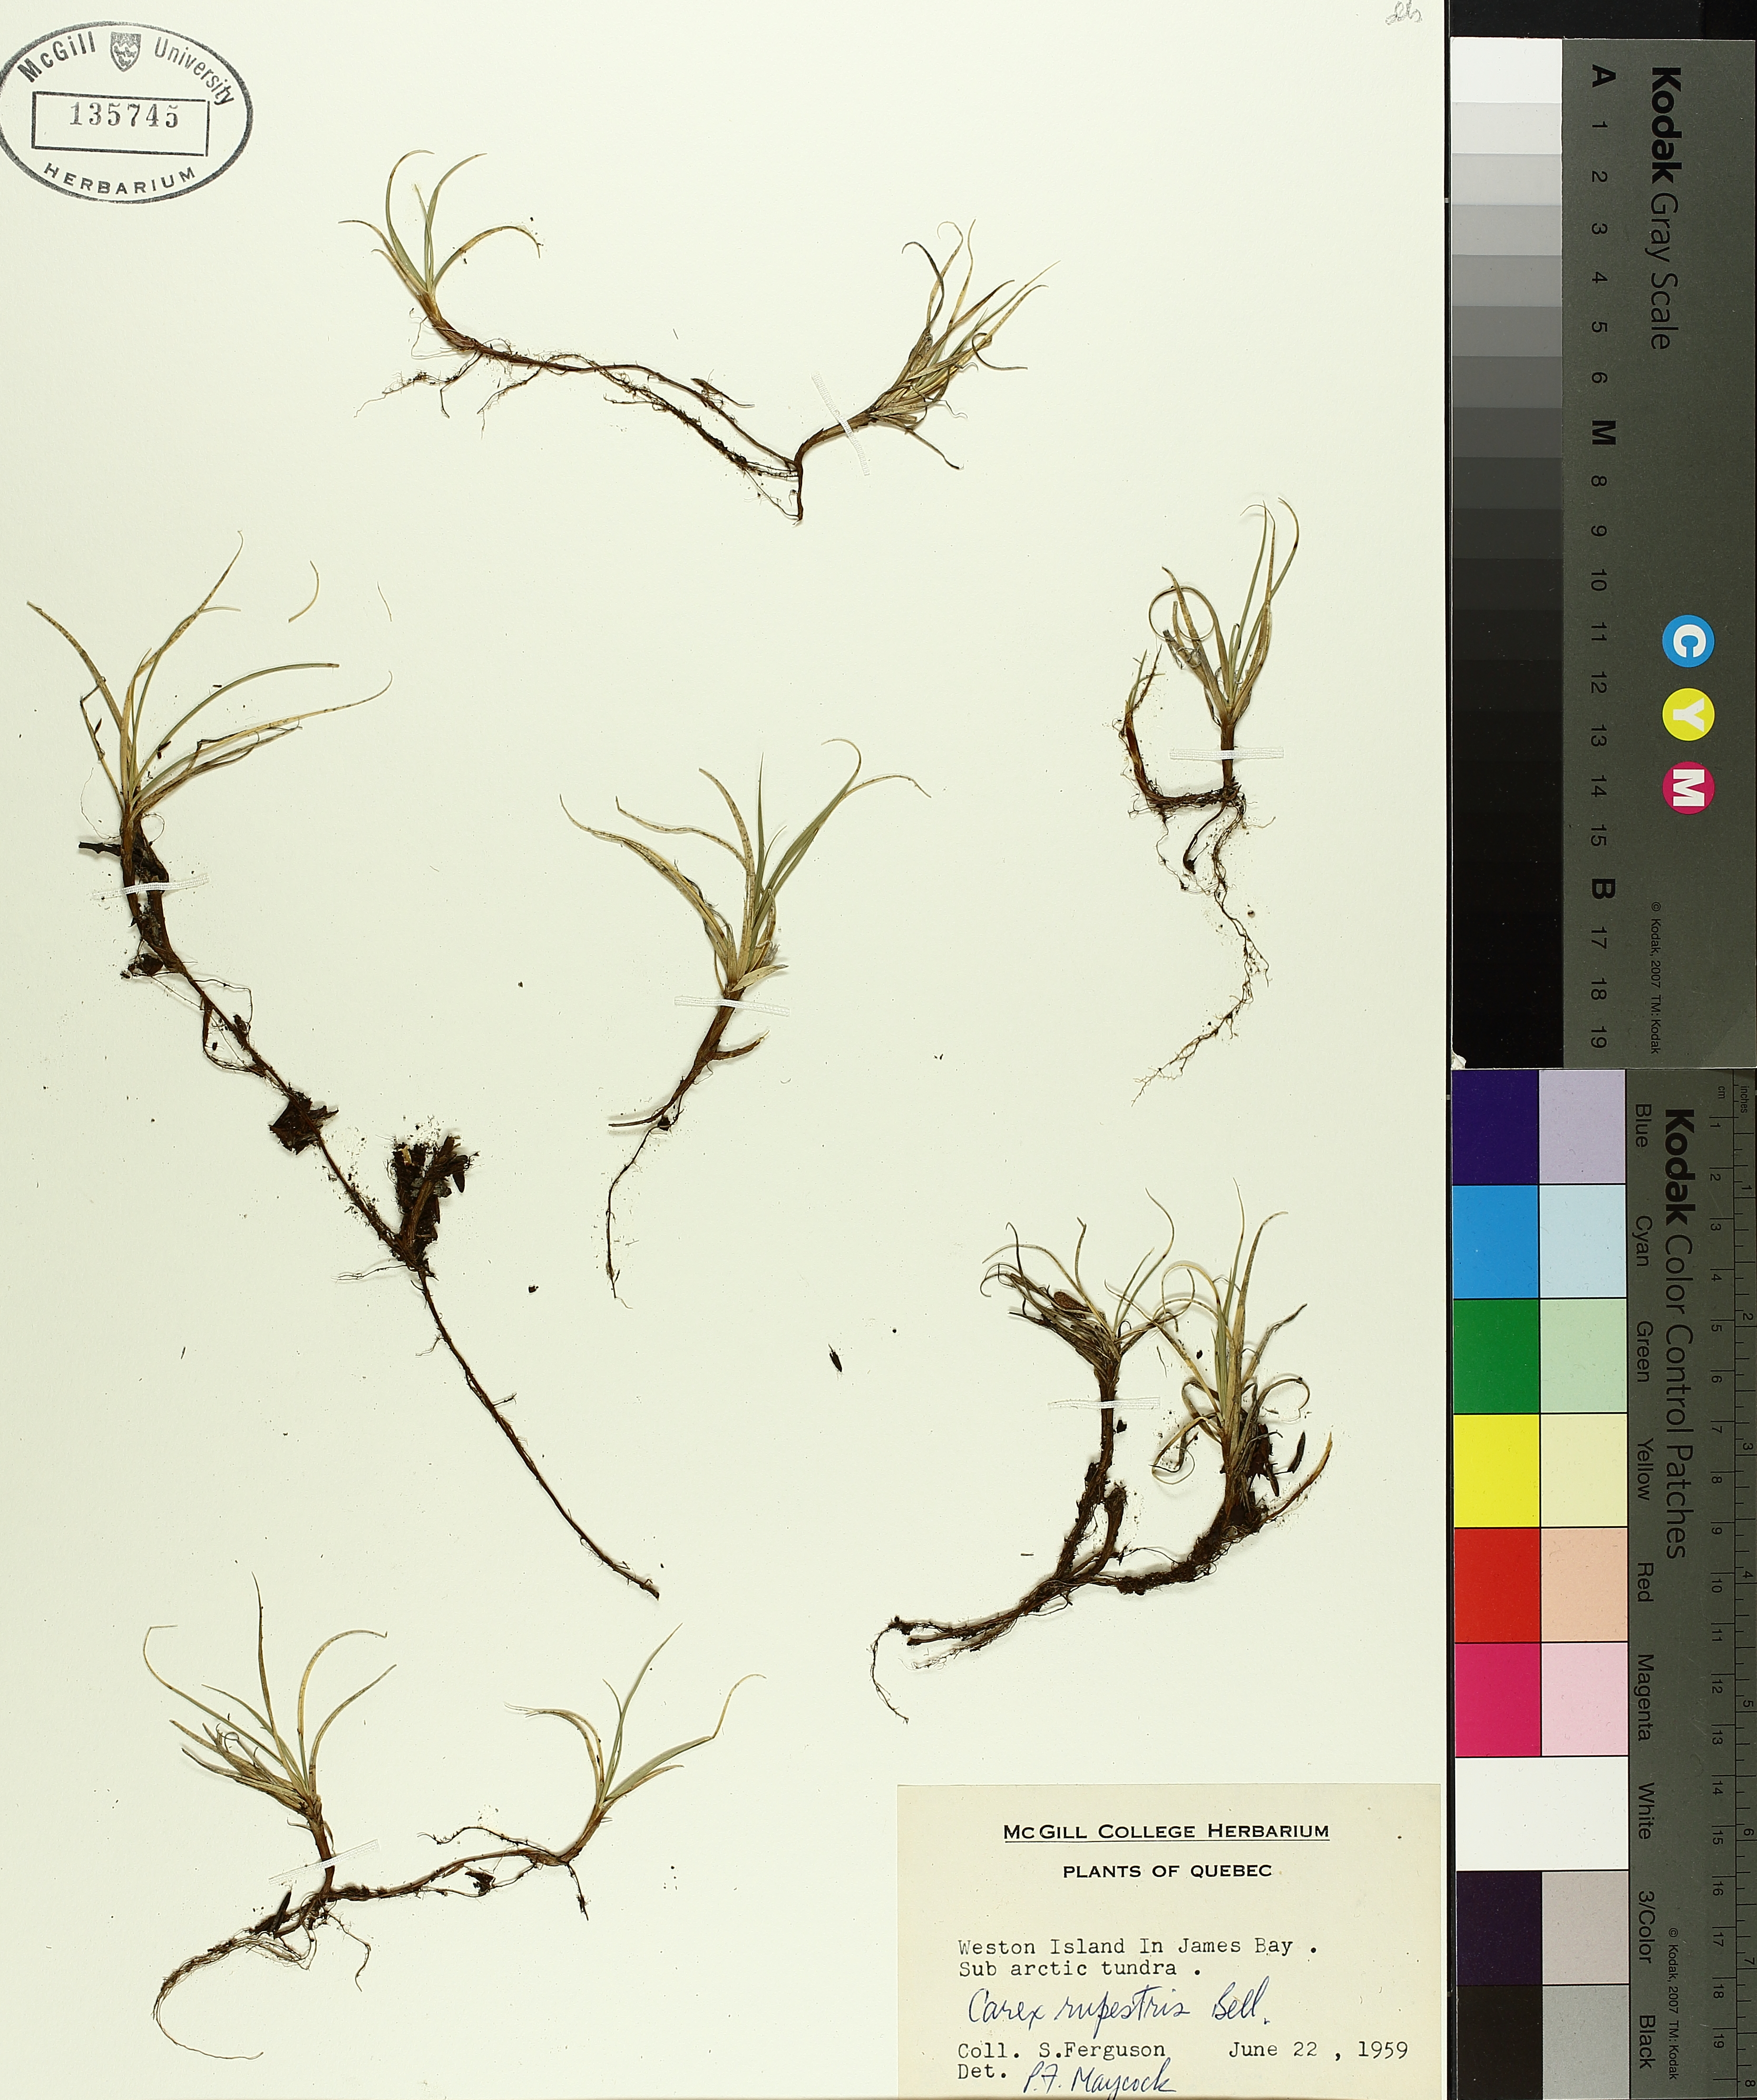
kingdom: Plantae
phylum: Tracheophyta
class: Liliopsida
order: Poales
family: Cyperaceae
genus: Carex
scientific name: Carex rupestris
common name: Rock sedge
